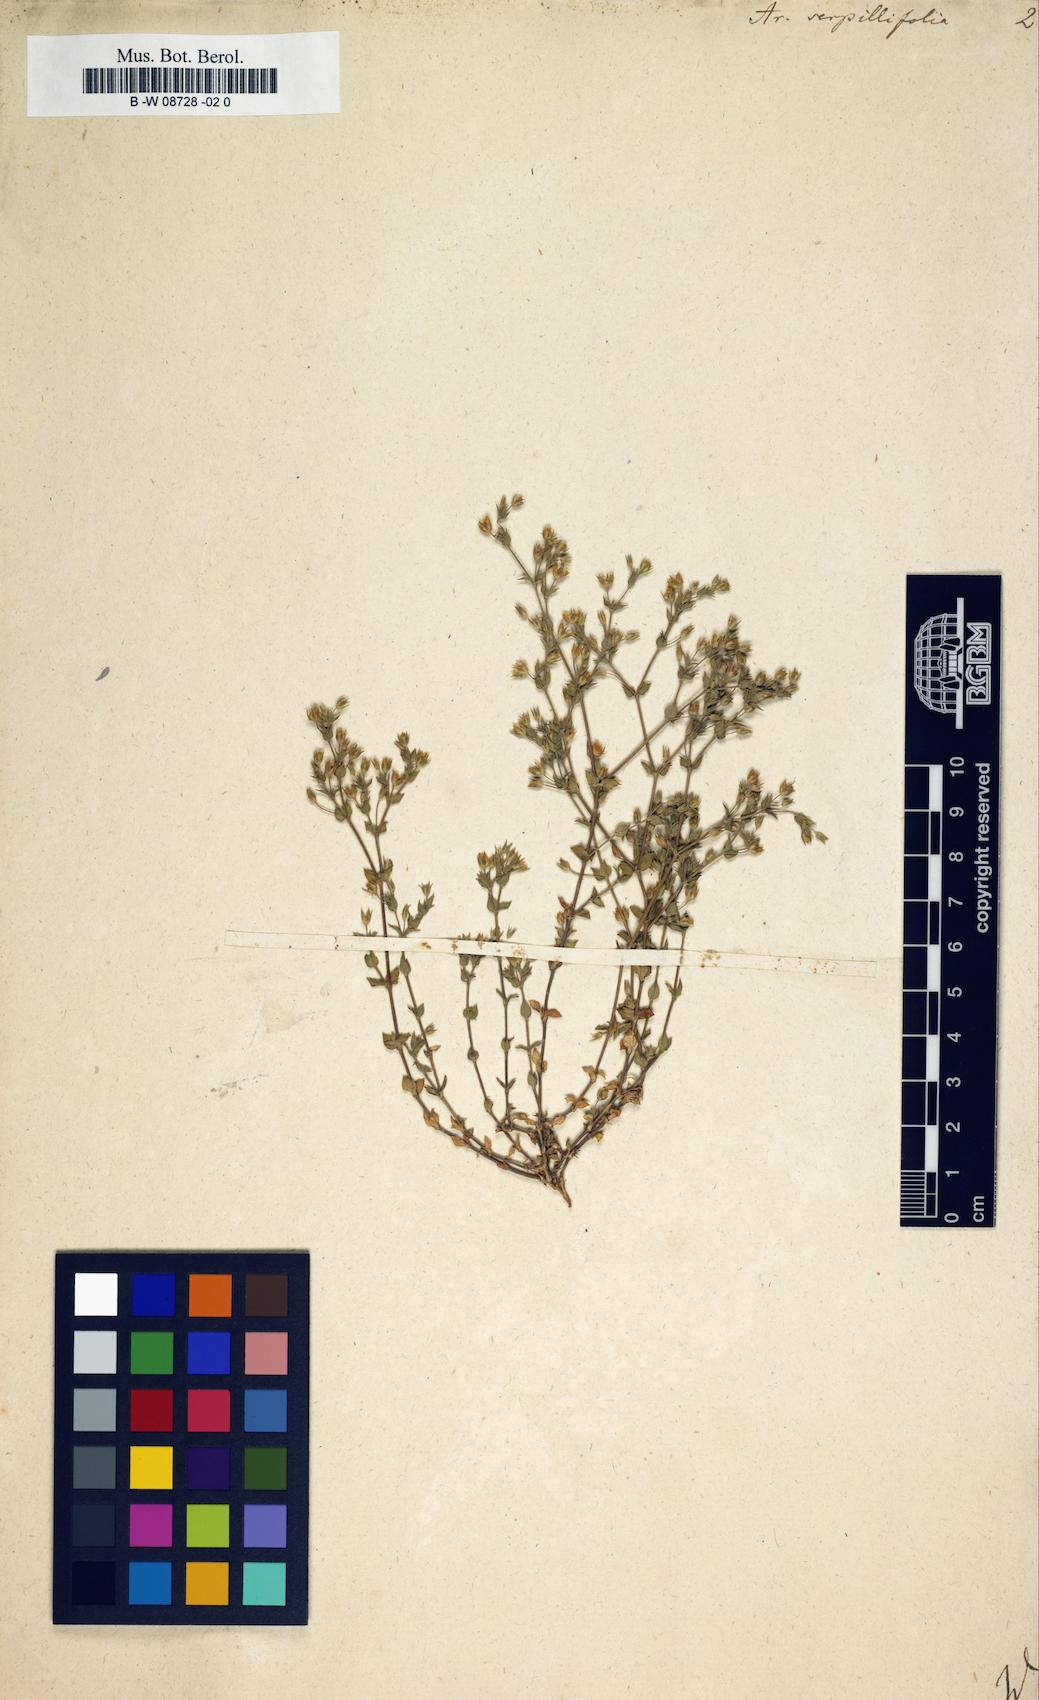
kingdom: Plantae
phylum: Tracheophyta
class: Magnoliopsida
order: Caryophyllales
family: Caryophyllaceae
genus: Arenaria
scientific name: Arenaria serpyllifolia
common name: Thyme-leaved sandwort
